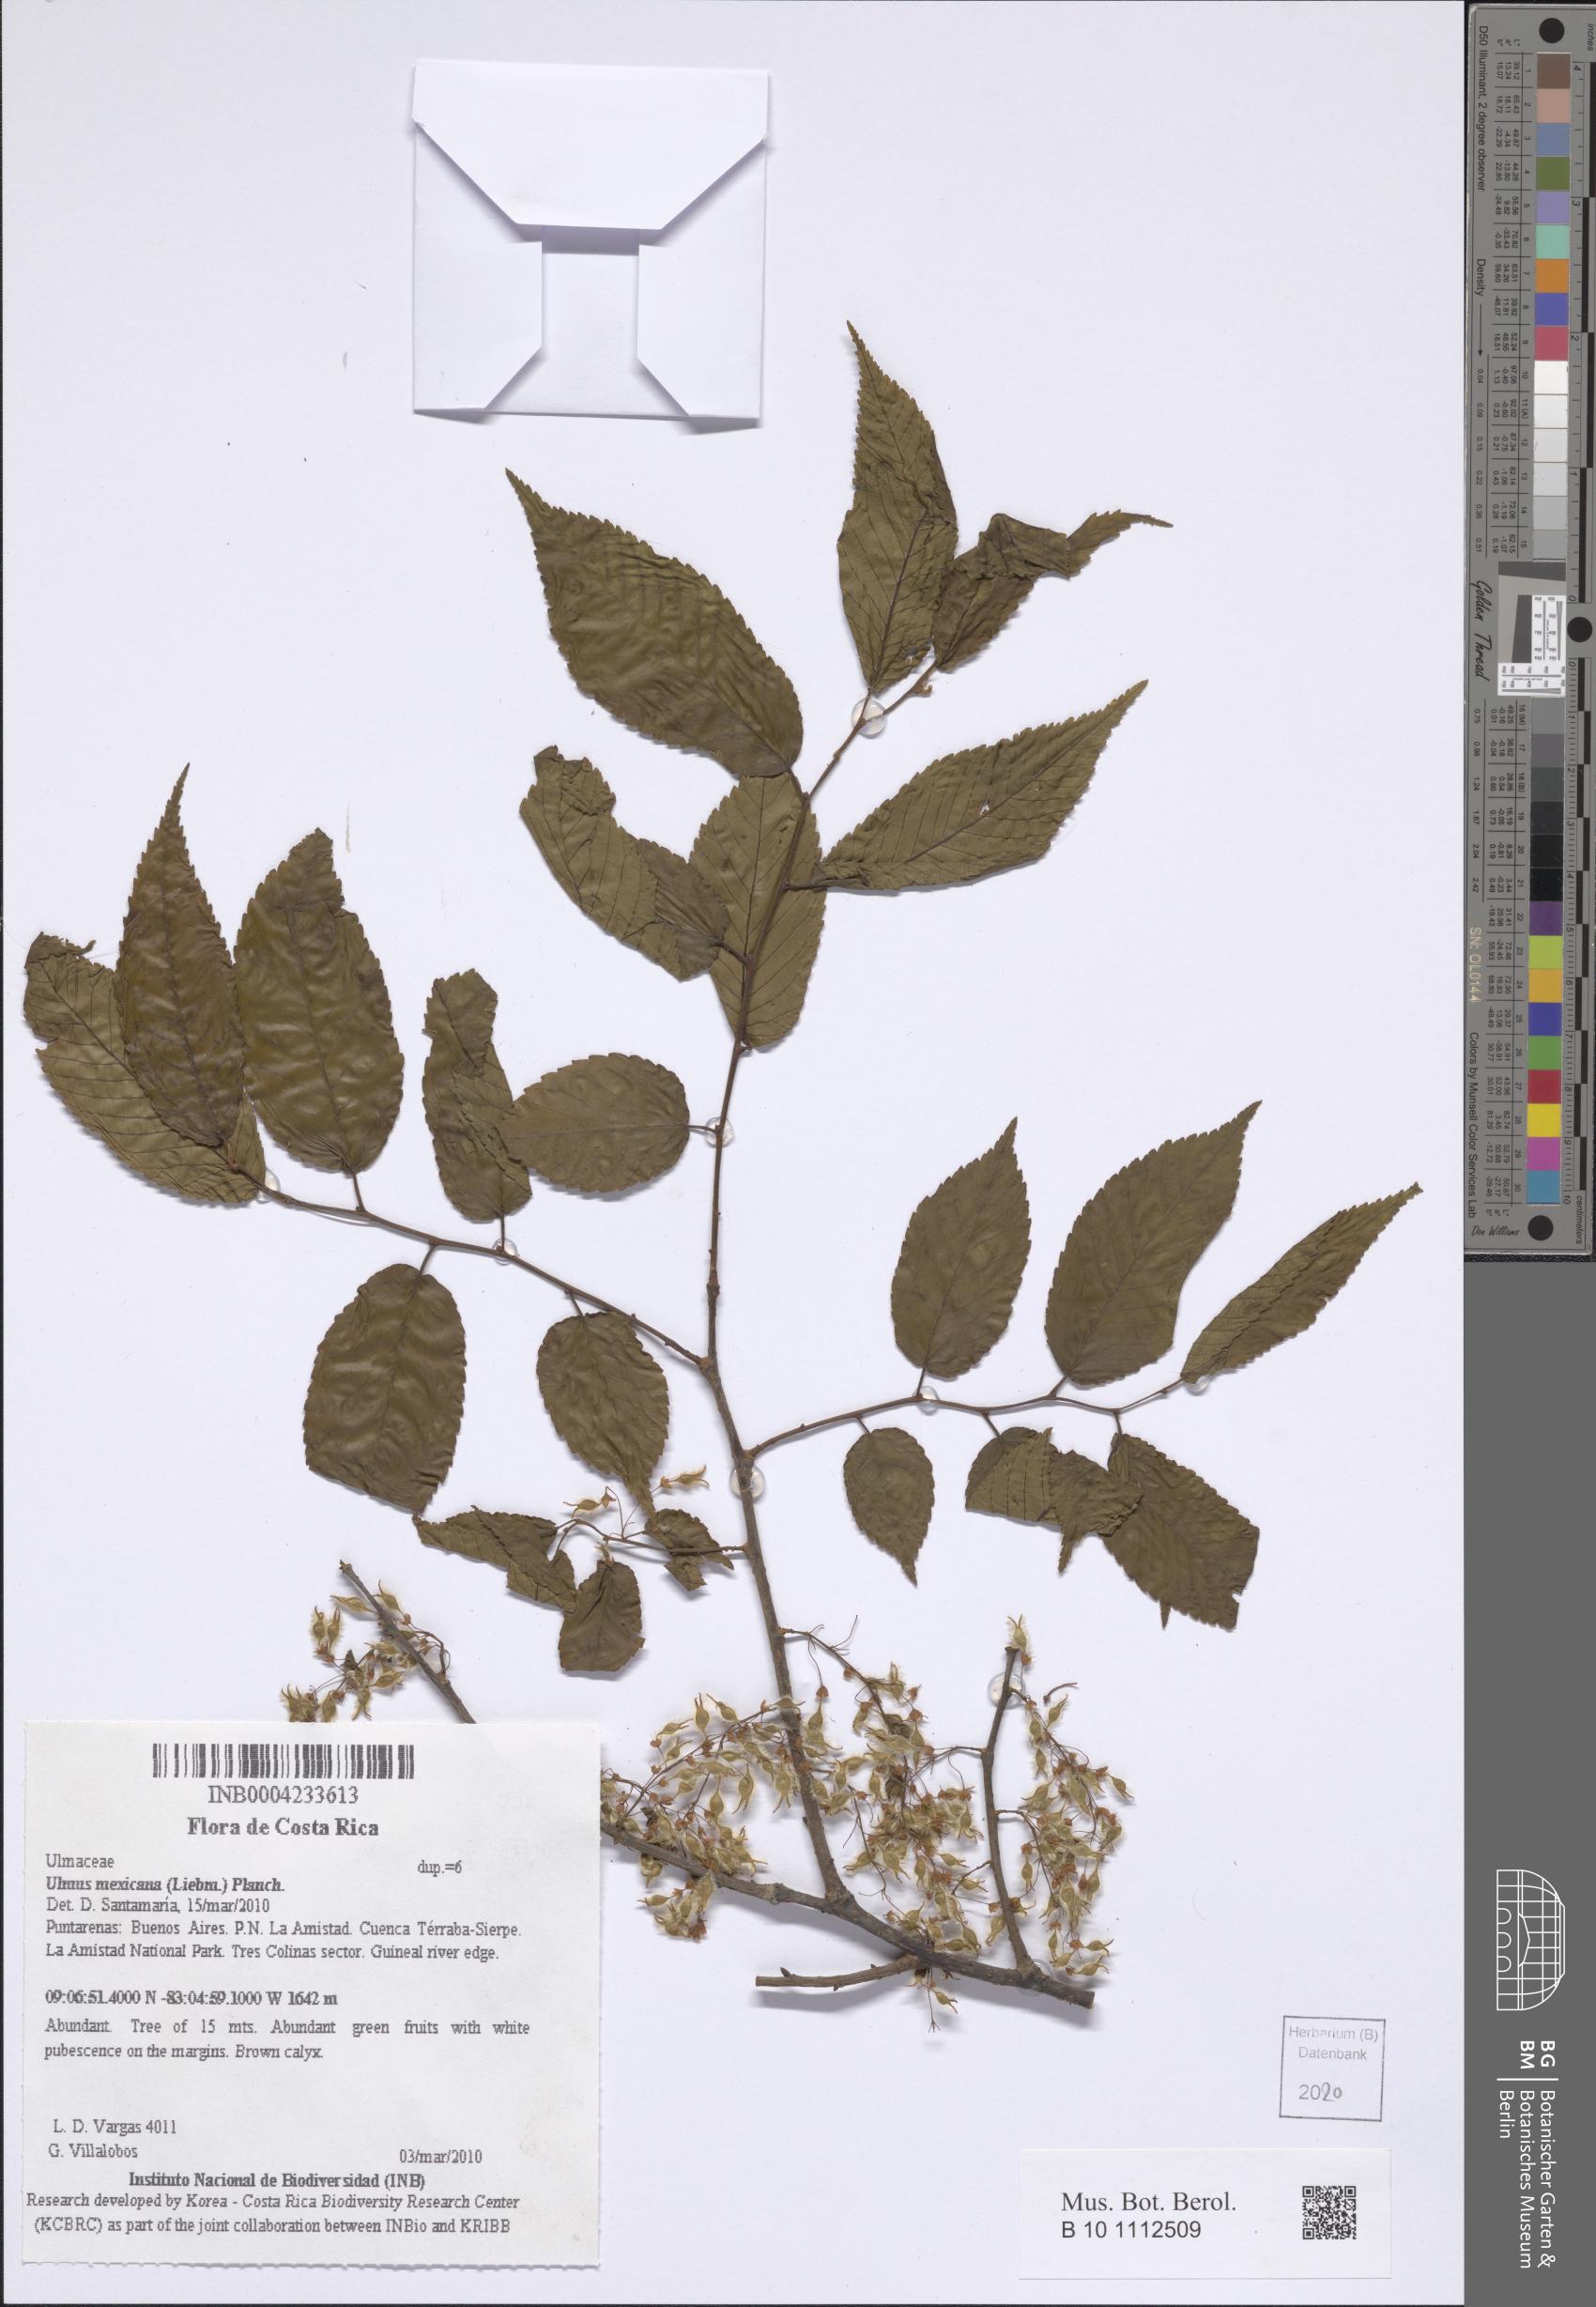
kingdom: Plantae
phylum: Tracheophyta
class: Magnoliopsida
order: Rosales
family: Ulmaceae
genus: Ulmus
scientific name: Ulmus mexicana
